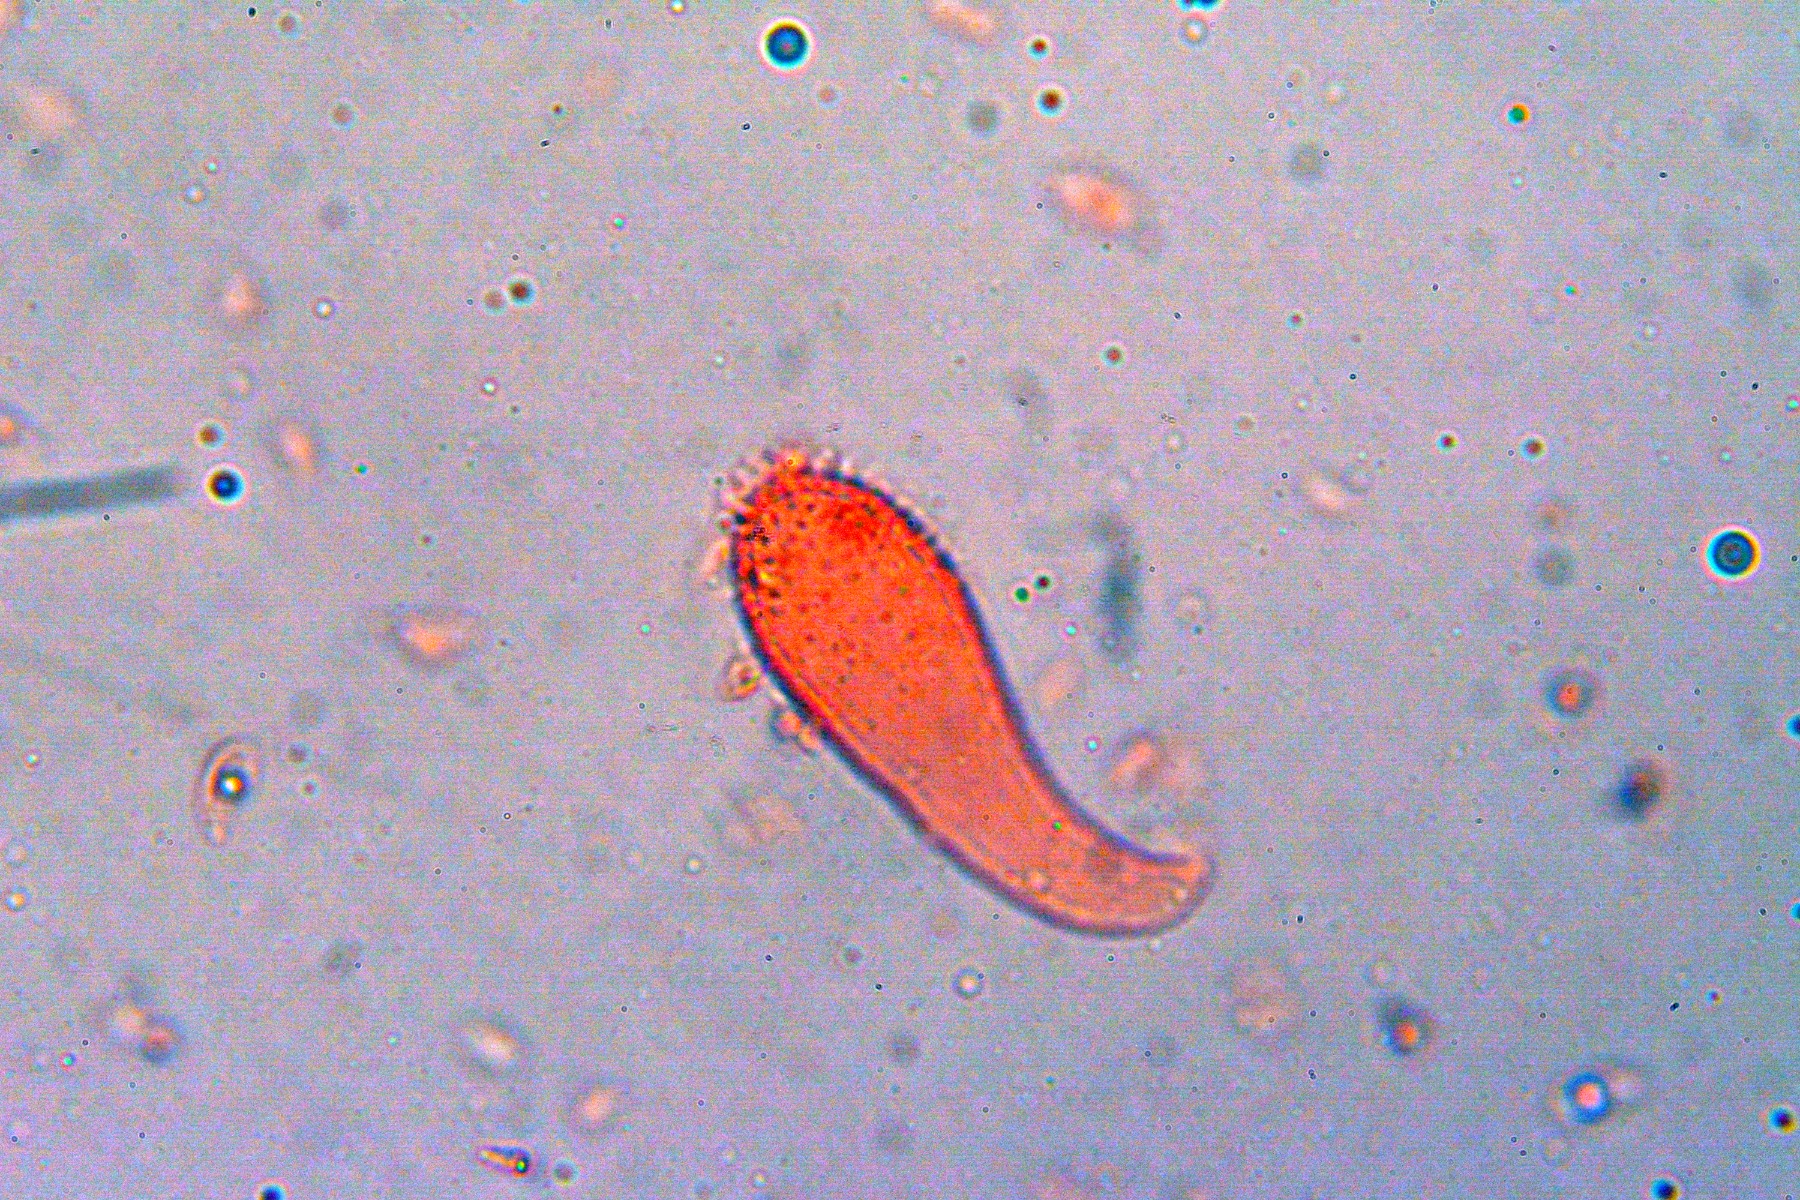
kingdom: Fungi
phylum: Basidiomycota
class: Agaricomycetes
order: Agaricales
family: Mycenaceae
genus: Mycena
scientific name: Mycena flavescens
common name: grågul huesvamp
